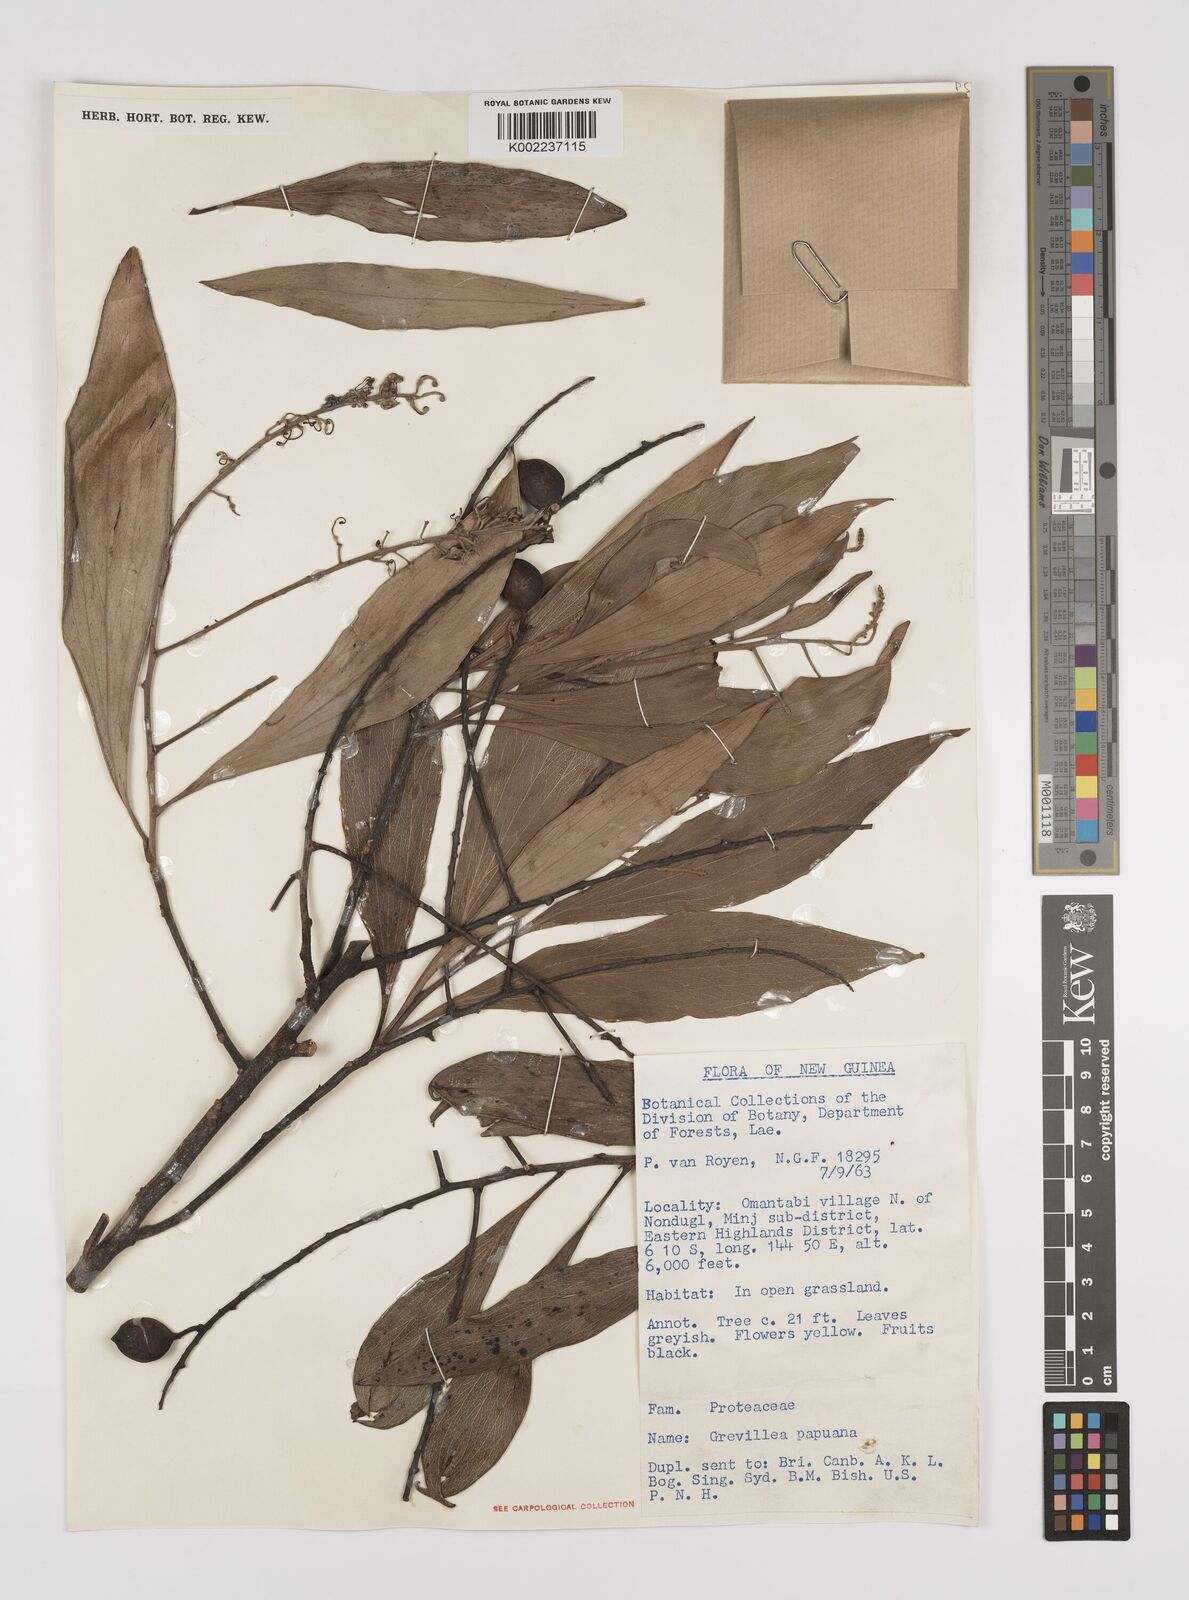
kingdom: Plantae
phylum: Tracheophyta
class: Magnoliopsida
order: Proteales
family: Proteaceae
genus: Grevillea
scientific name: Grevillea papuana
